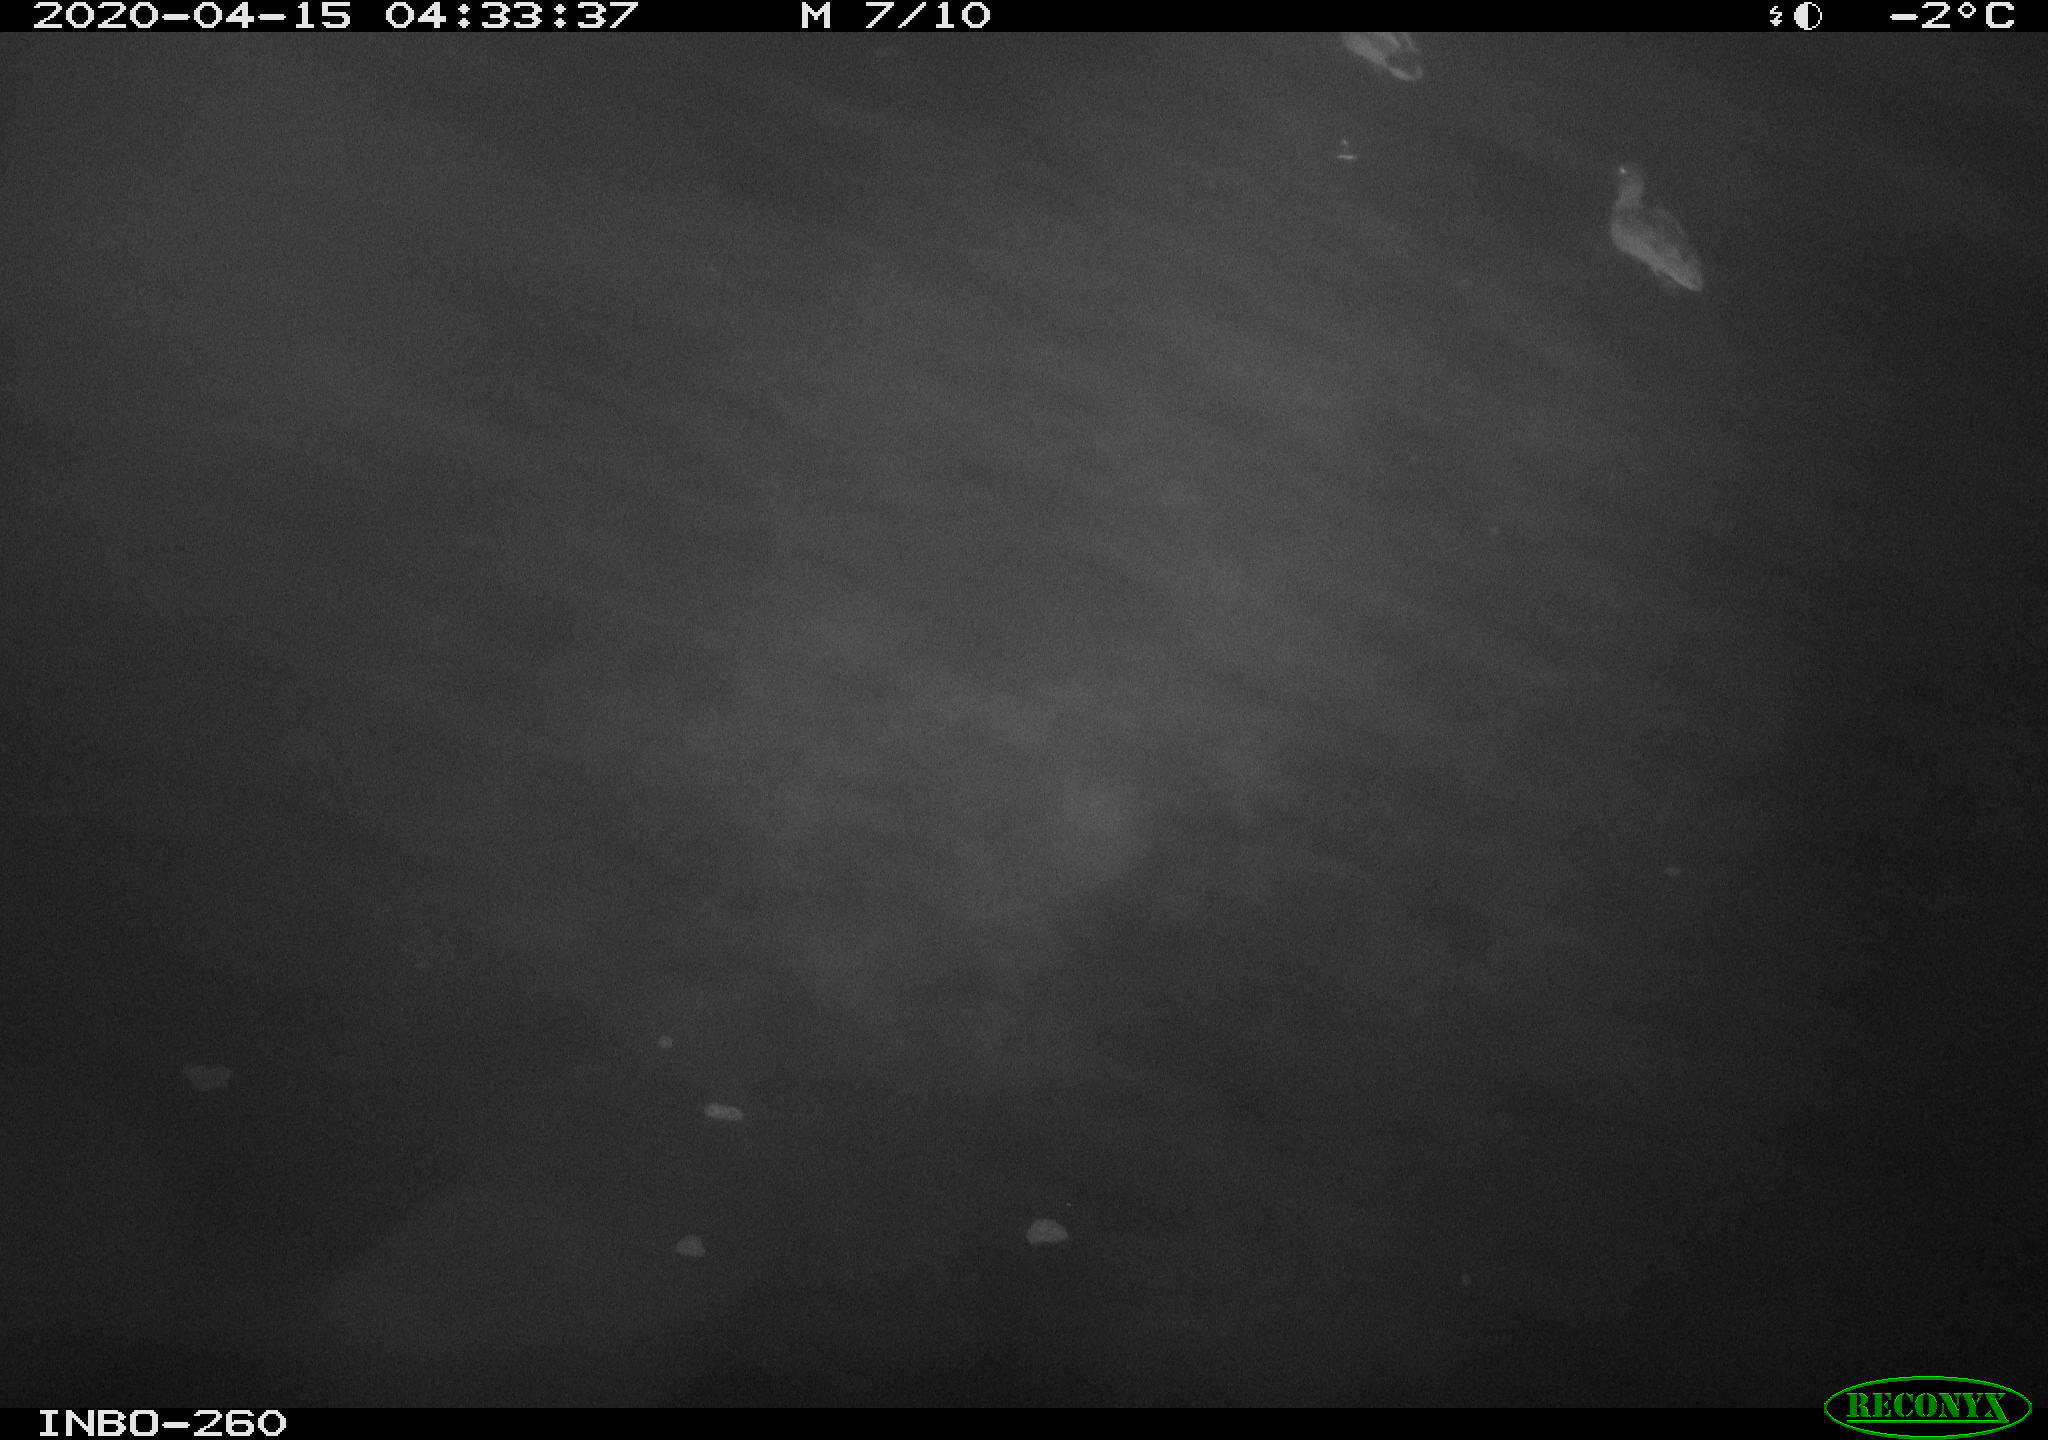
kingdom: Animalia
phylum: Chordata
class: Aves
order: Anseriformes
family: Anatidae
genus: Anas
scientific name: Anas platyrhynchos
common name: Mallard
